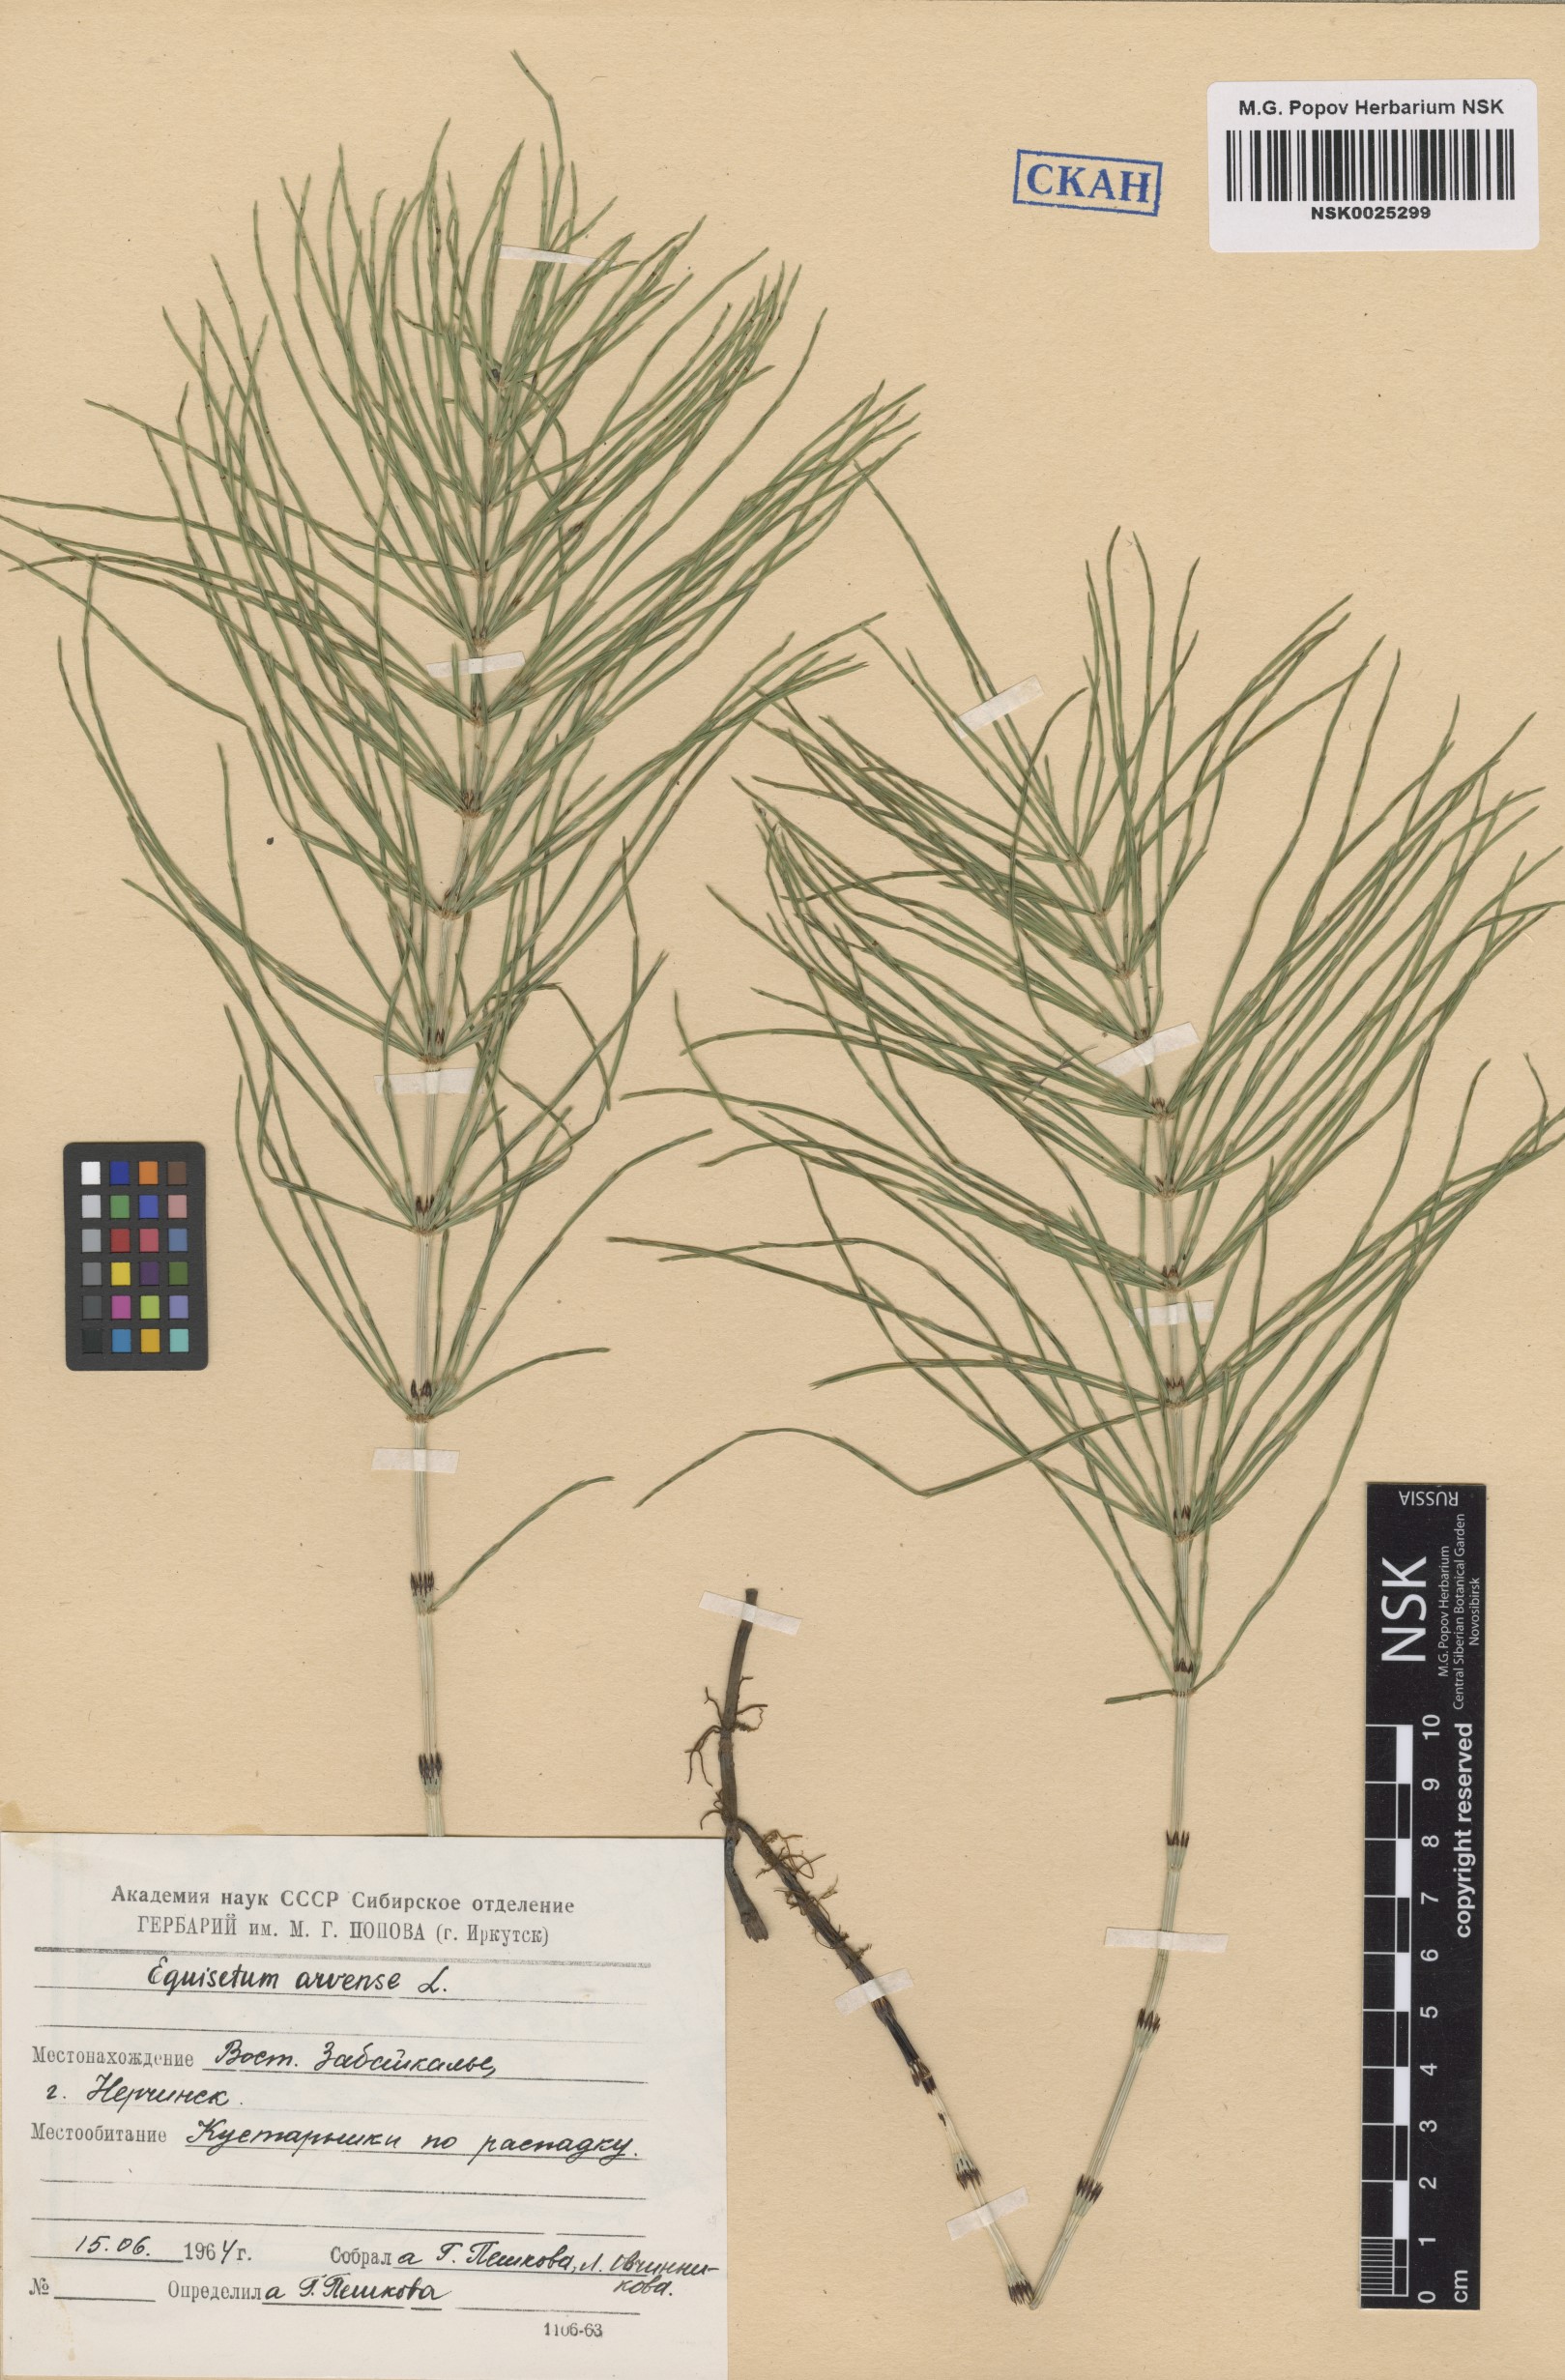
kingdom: Plantae
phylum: Tracheophyta
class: Polypodiopsida
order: Equisetales
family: Equisetaceae
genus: Equisetum
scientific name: Equisetum arvense
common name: Field horsetail
